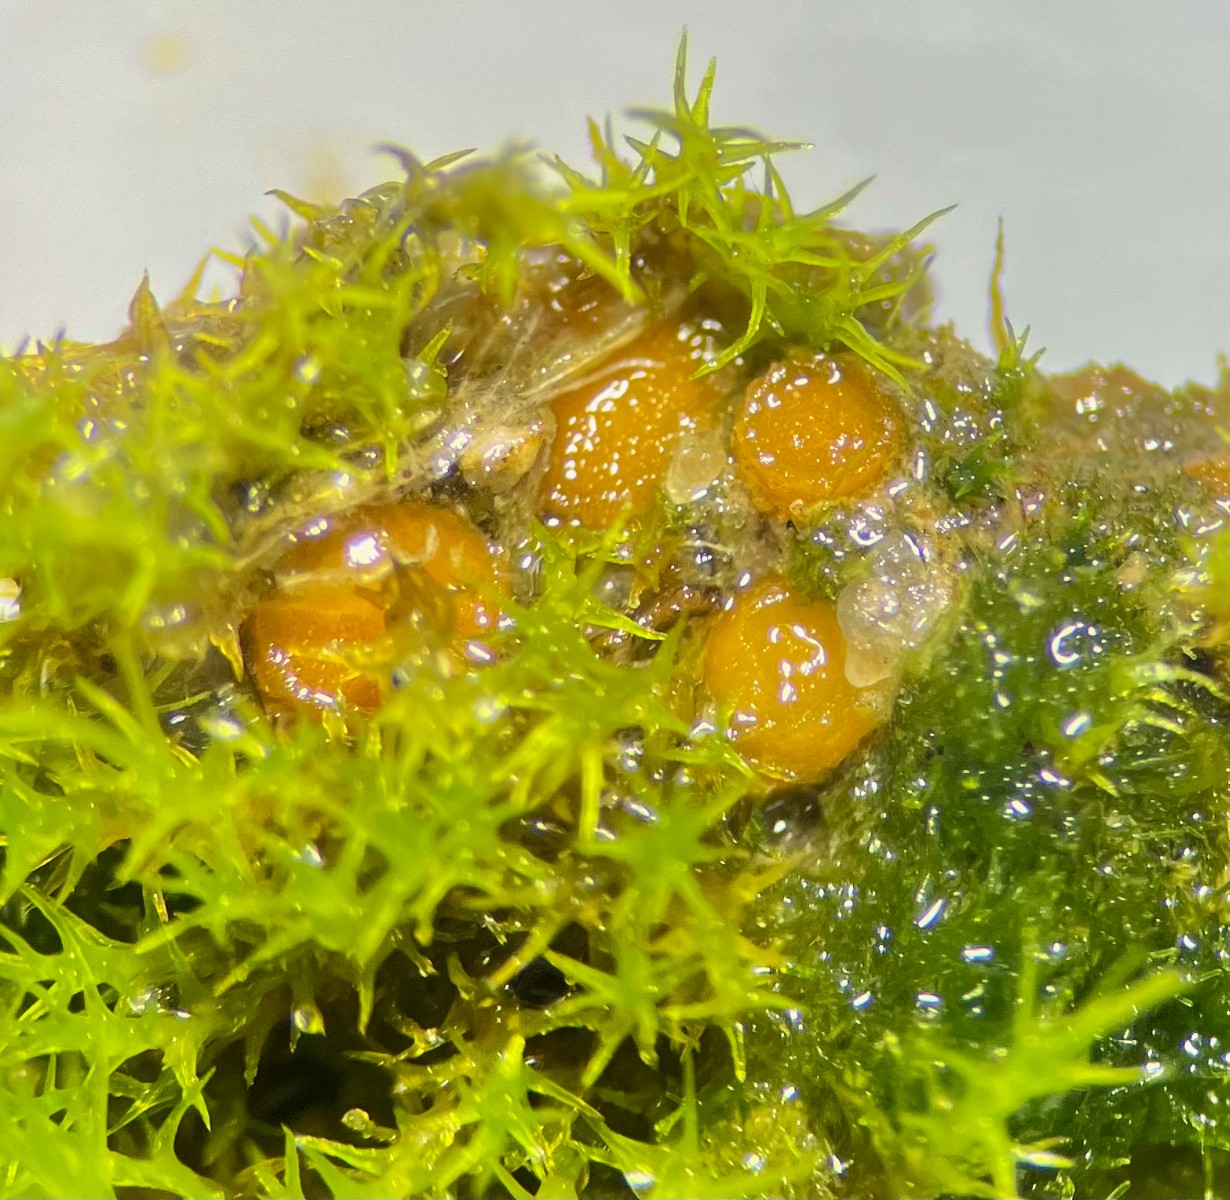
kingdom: Fungi
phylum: Ascomycota
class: Pezizomycetes
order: Pezizales
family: Pyronemataceae
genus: Octospora
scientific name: Octospora tuberculata
